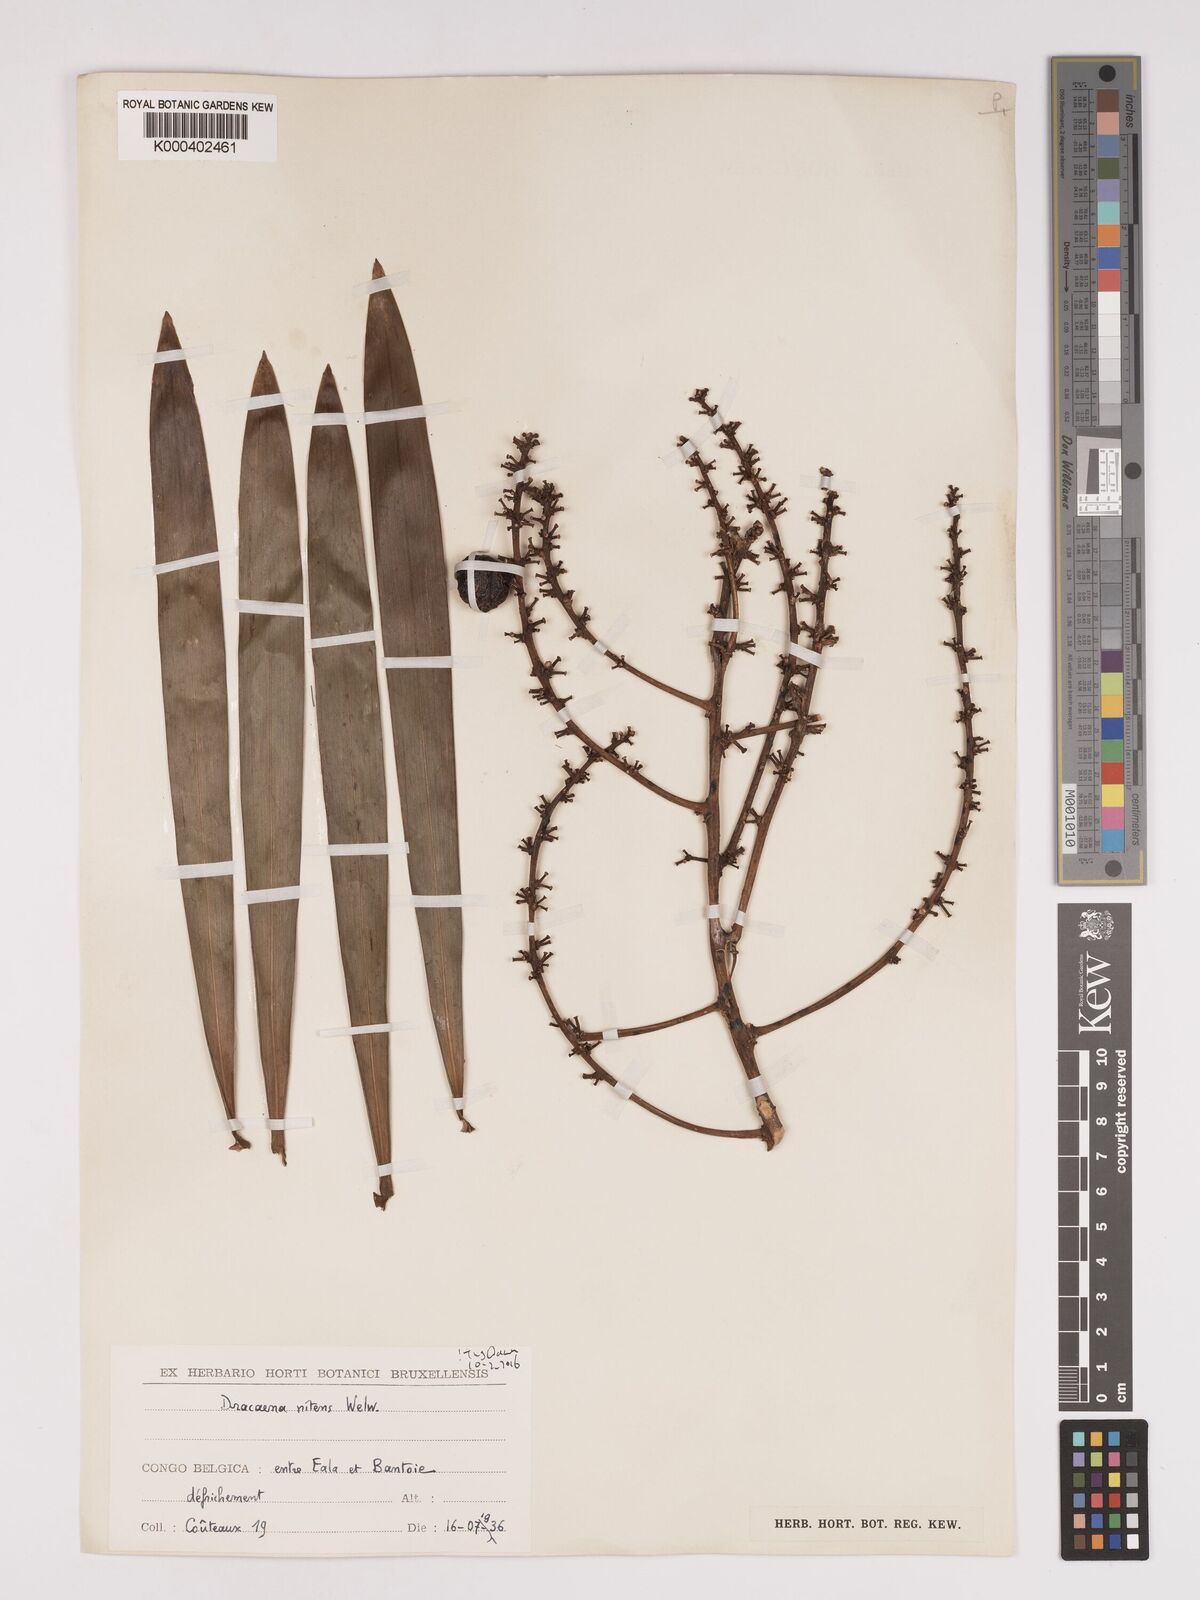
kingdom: Plantae
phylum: Tracheophyta
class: Liliopsida
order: Asparagales
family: Asparagaceae
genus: Dracaena
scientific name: Dracaena nitens
